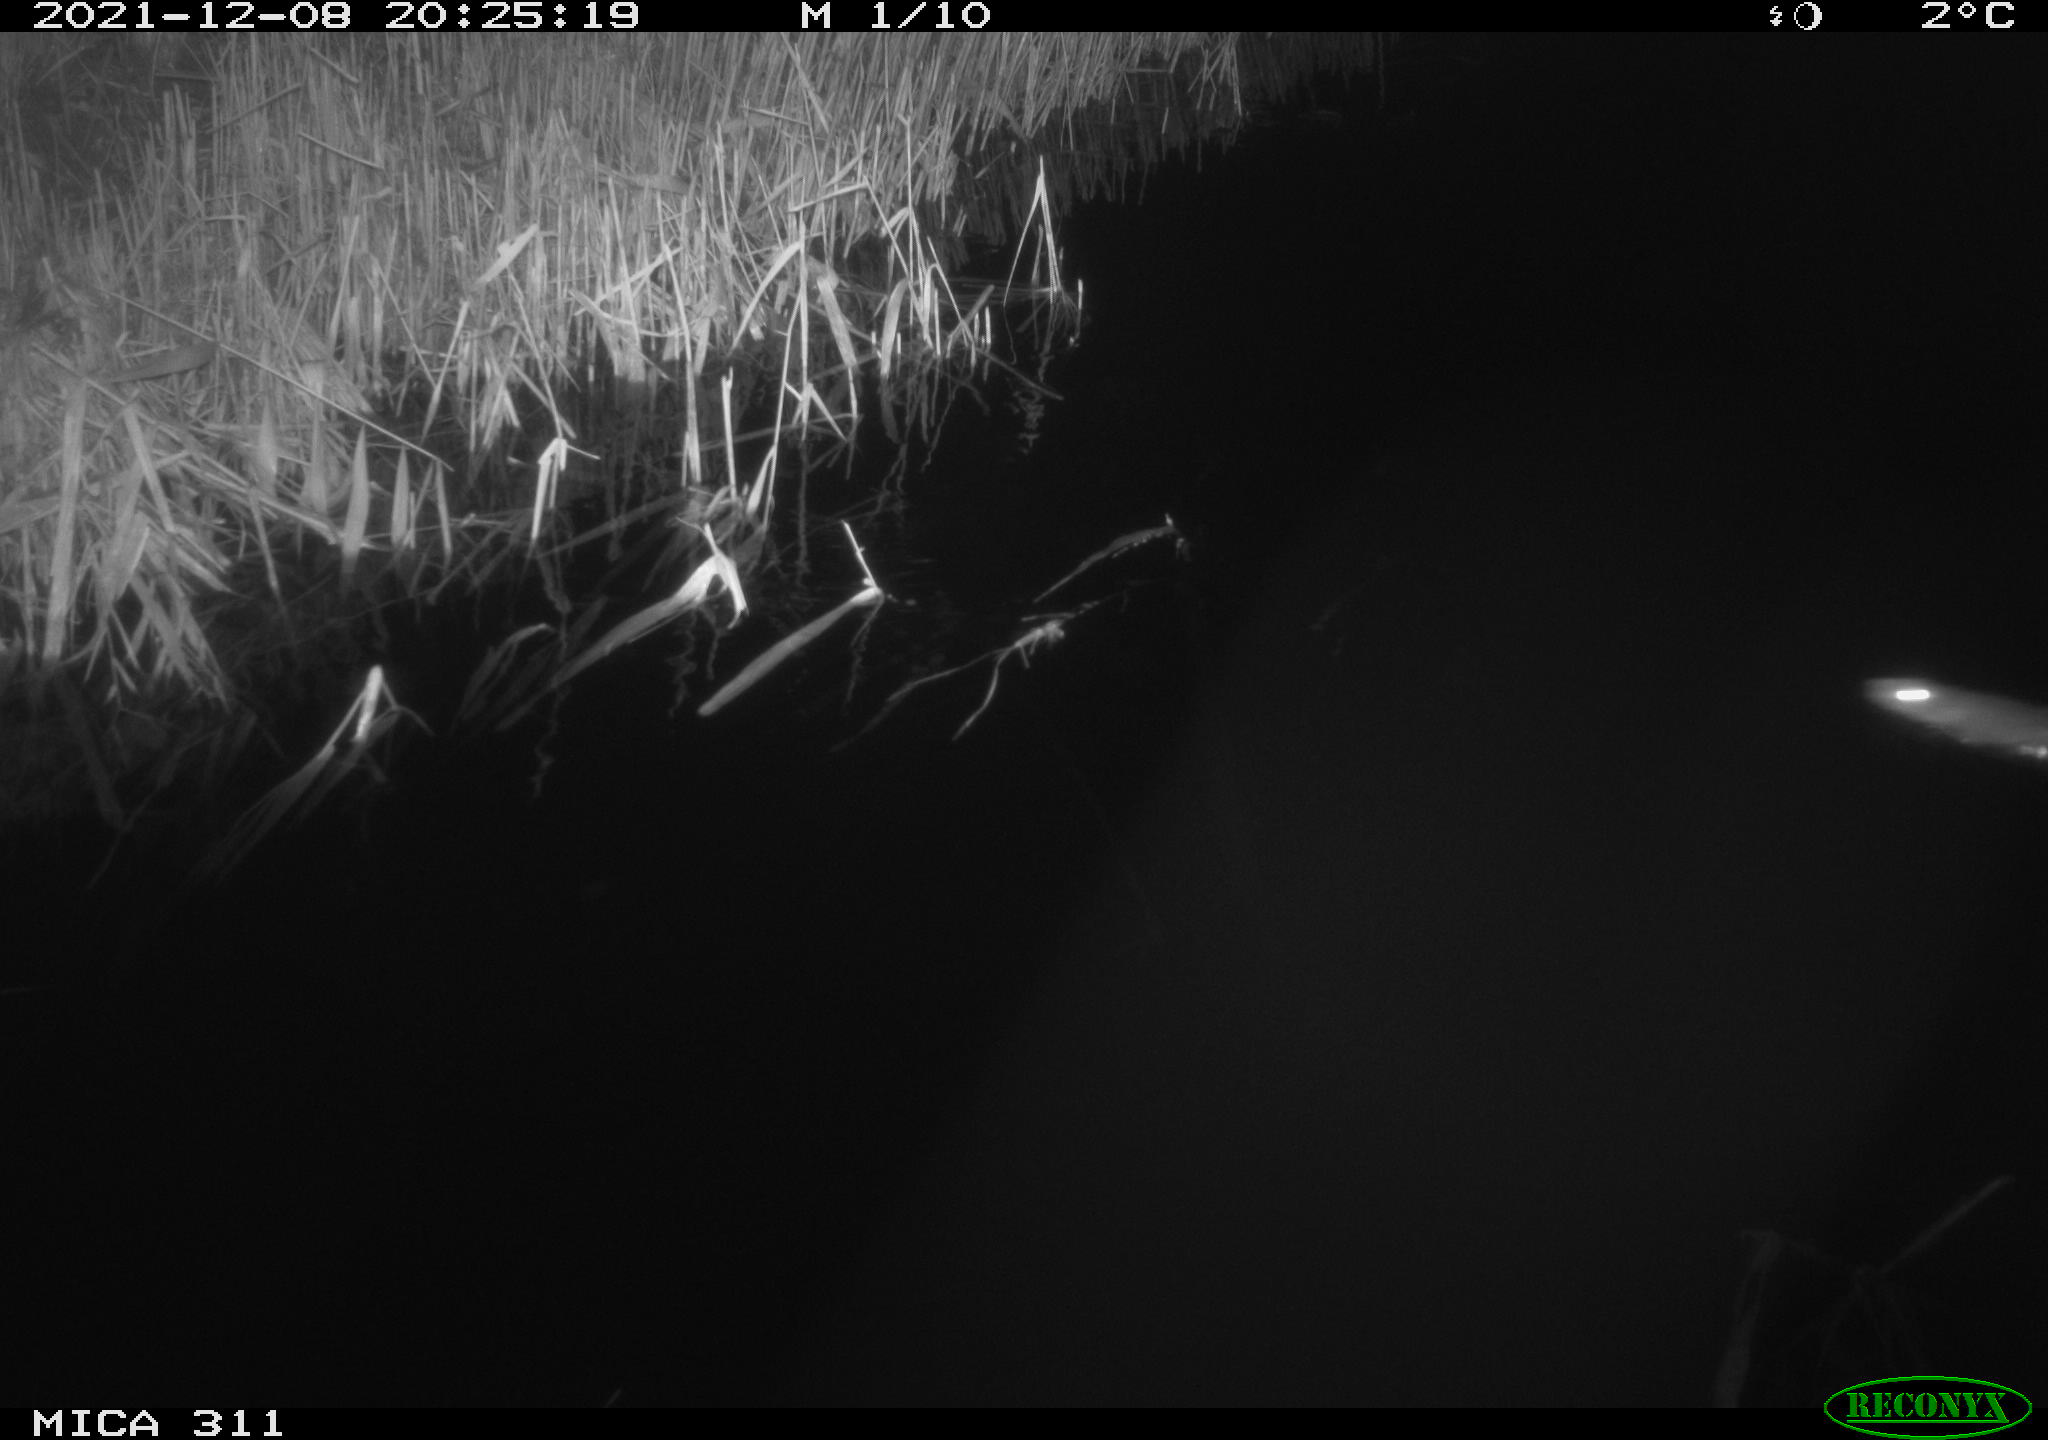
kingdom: Animalia
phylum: Chordata
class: Mammalia
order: Rodentia
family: Muridae
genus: Rattus
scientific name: Rattus norvegicus
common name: Brown rat
